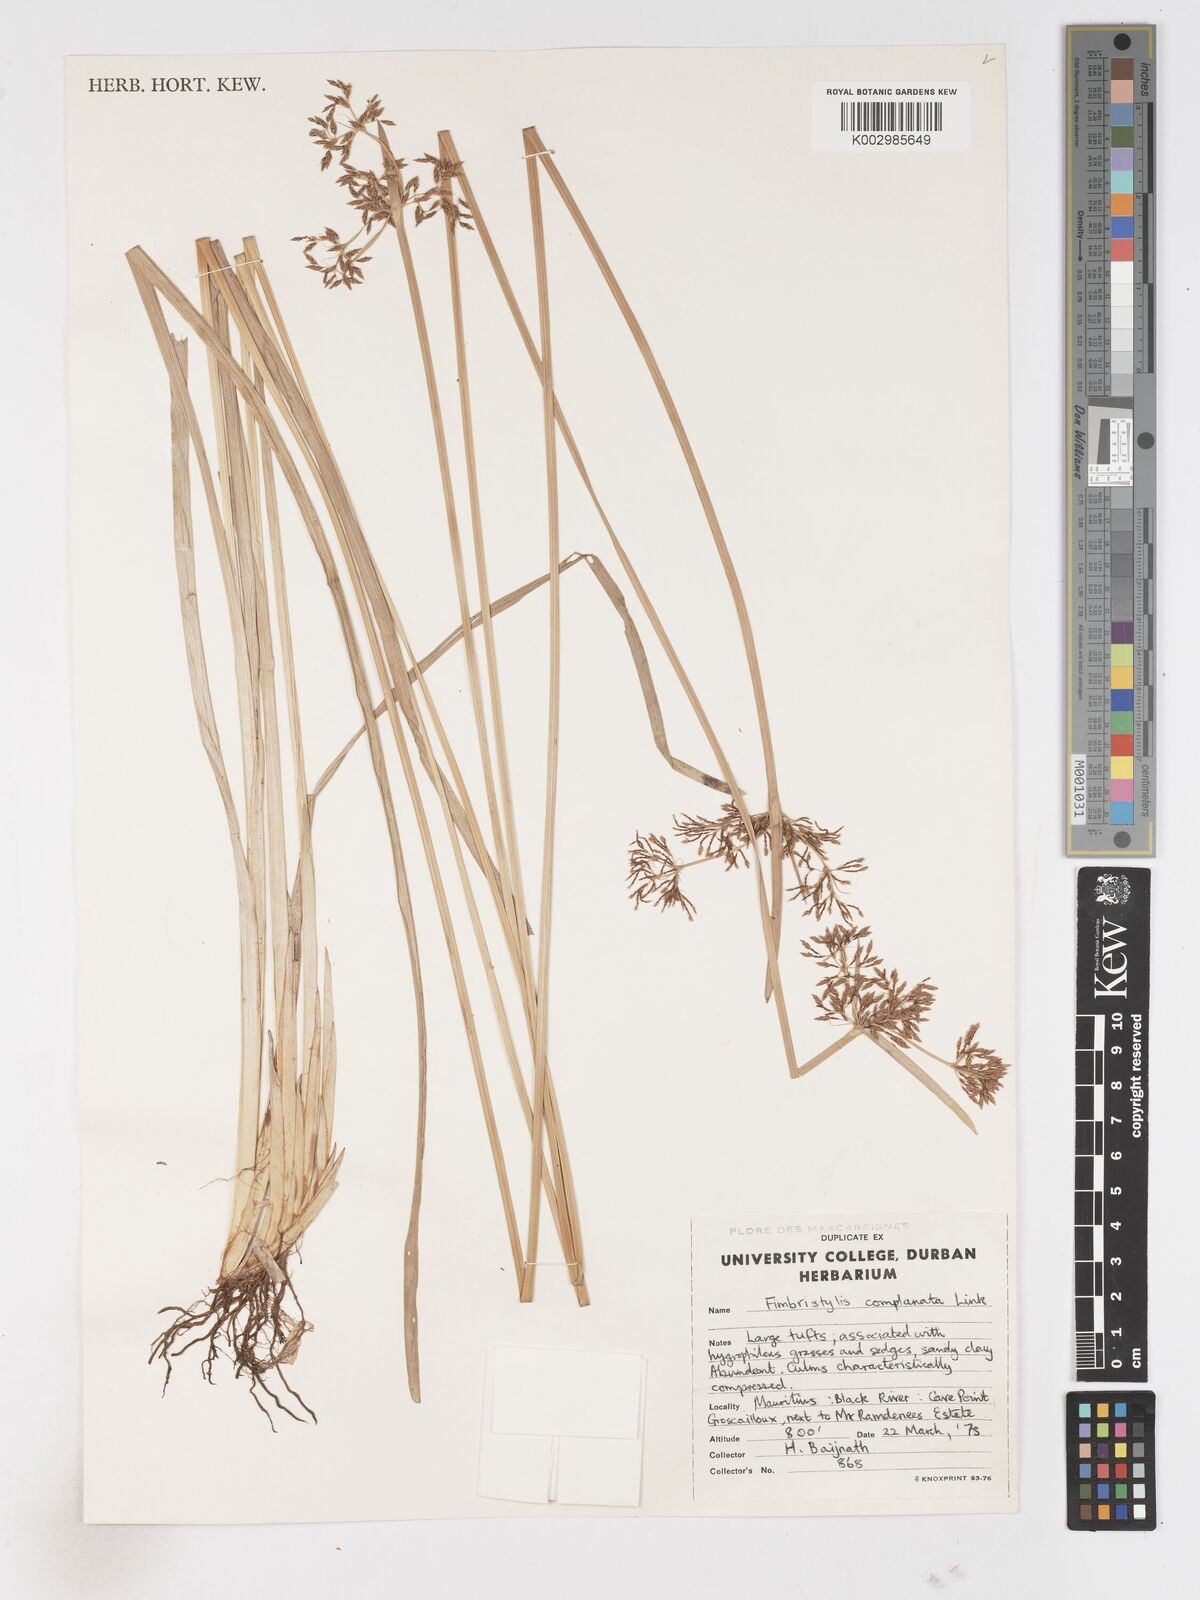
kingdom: Plantae
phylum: Tracheophyta
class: Liliopsida
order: Poales
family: Cyperaceae
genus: Fimbristylis
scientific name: Fimbristylis complanata
